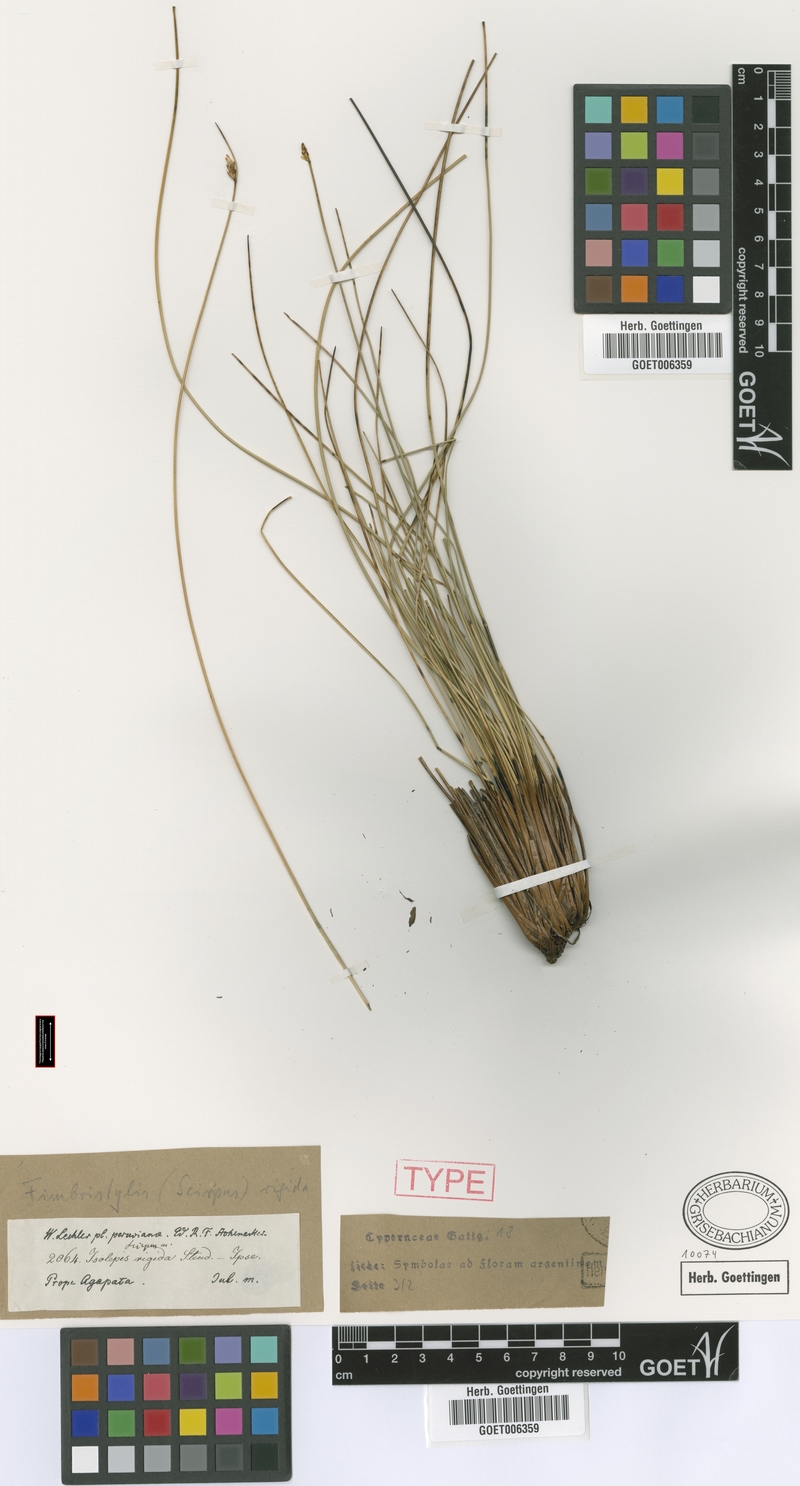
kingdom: Plantae
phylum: Tracheophyta
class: Liliopsida
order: Poales
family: Cyperaceae
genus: Schoenoplectus
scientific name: Schoenoplectus californicus
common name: California bulrush
